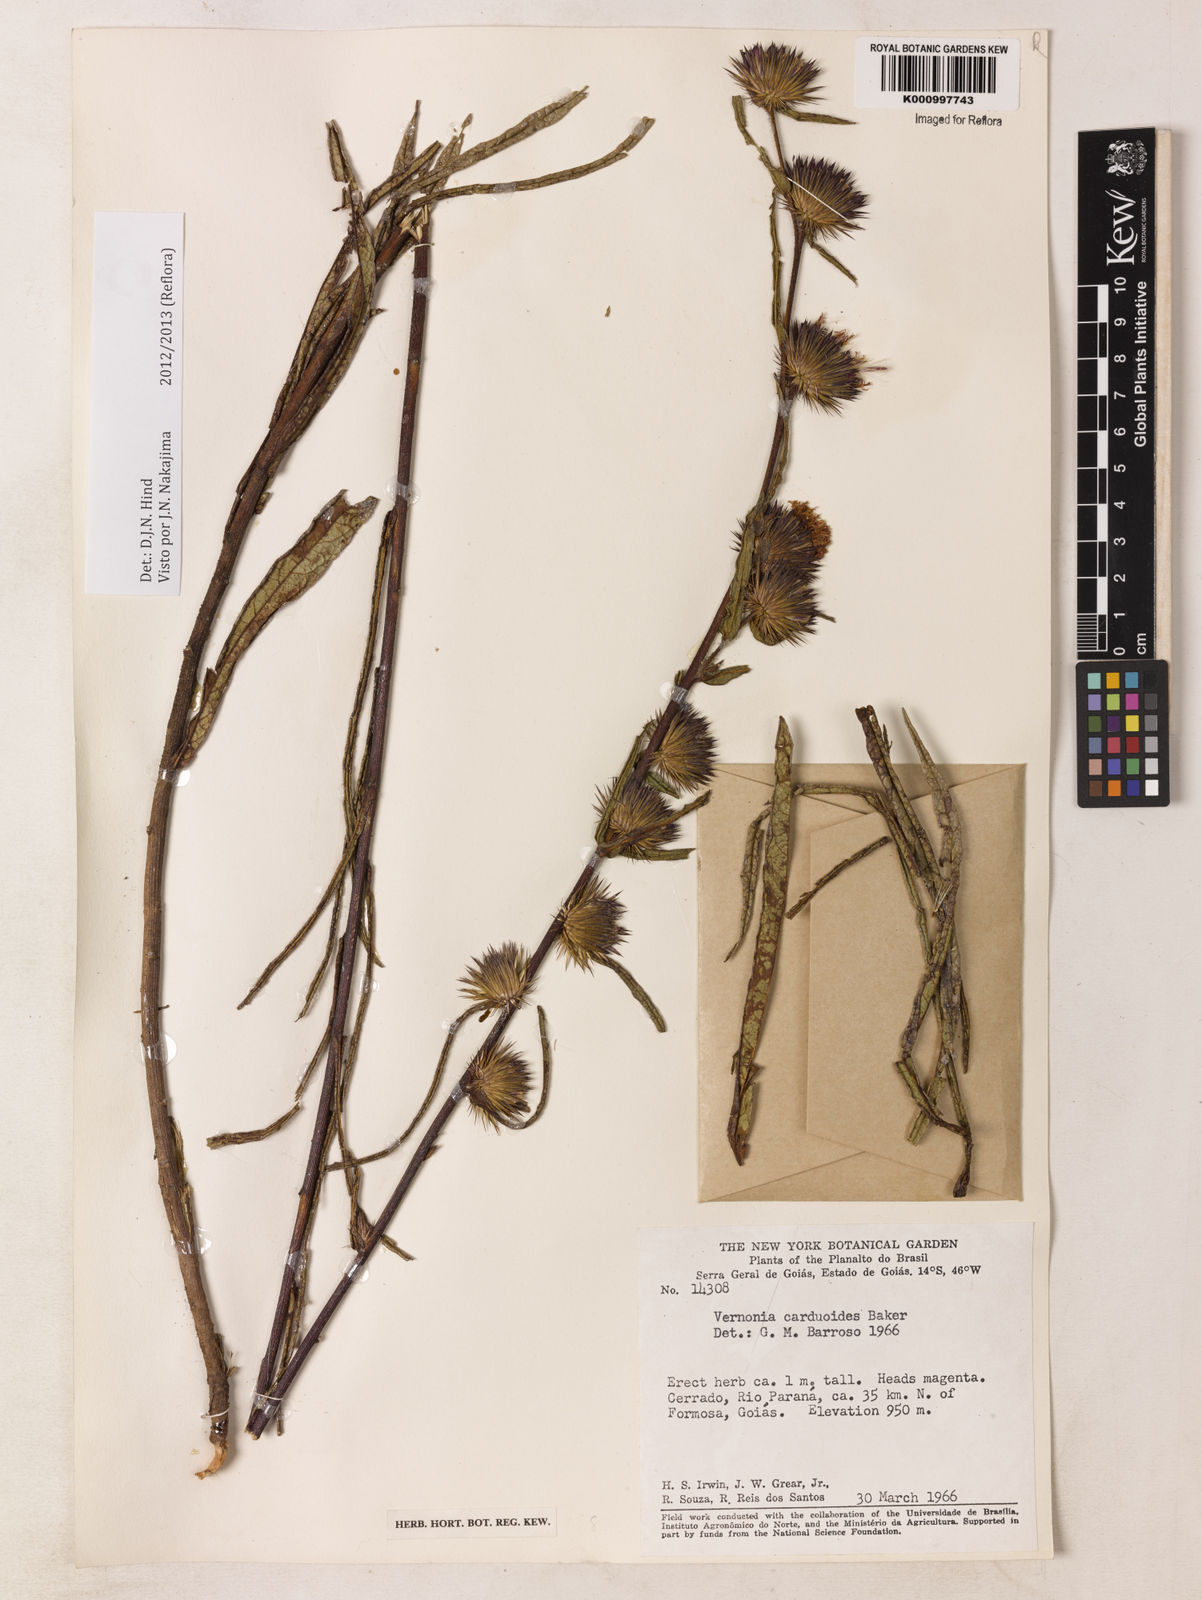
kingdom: Plantae
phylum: Tracheophyta
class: Magnoliopsida
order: Asterales
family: Asteraceae
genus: Lessingianthus
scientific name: Lessingianthus carduoides
